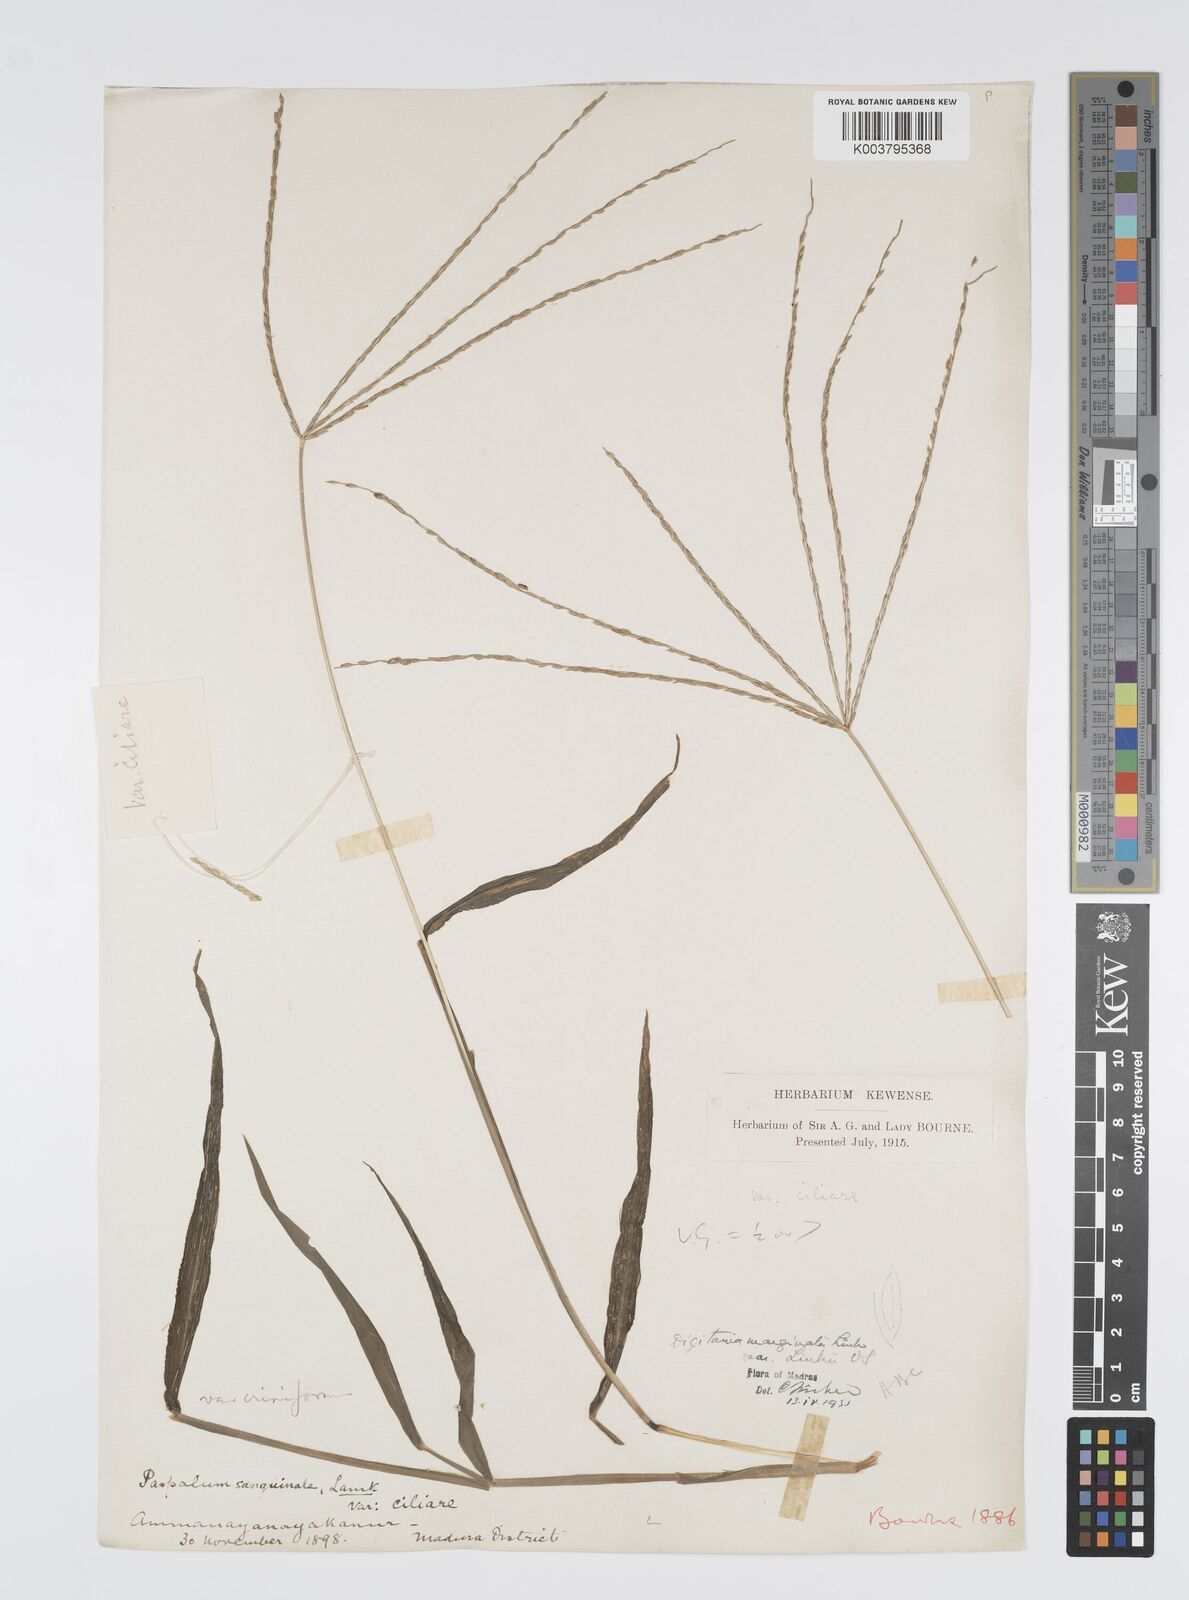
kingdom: Plantae
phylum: Tracheophyta
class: Liliopsida
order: Poales
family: Poaceae
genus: Digitaria
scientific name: Digitaria ciliaris
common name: Tropical finger-grass
